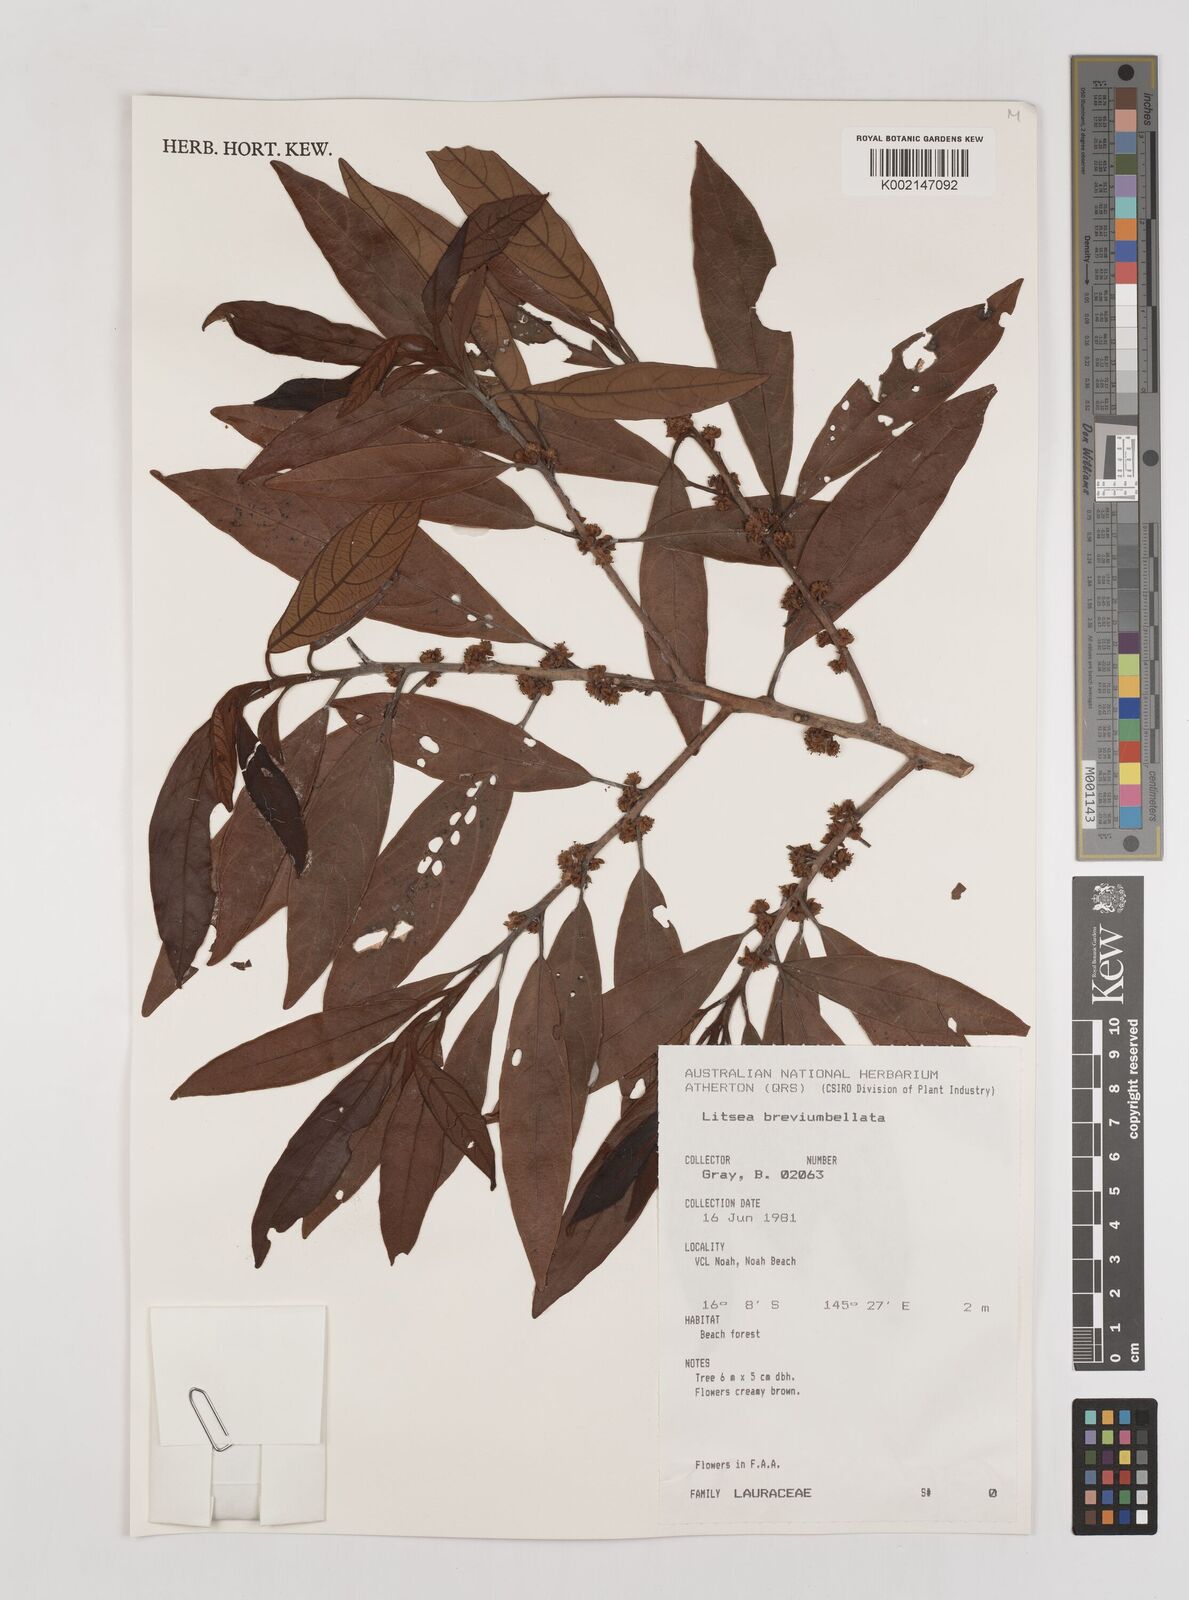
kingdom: Plantae
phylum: Tracheophyta
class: Magnoliopsida
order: Laurales
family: Lauraceae
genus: Litsea
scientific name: Litsea breviumbellata
